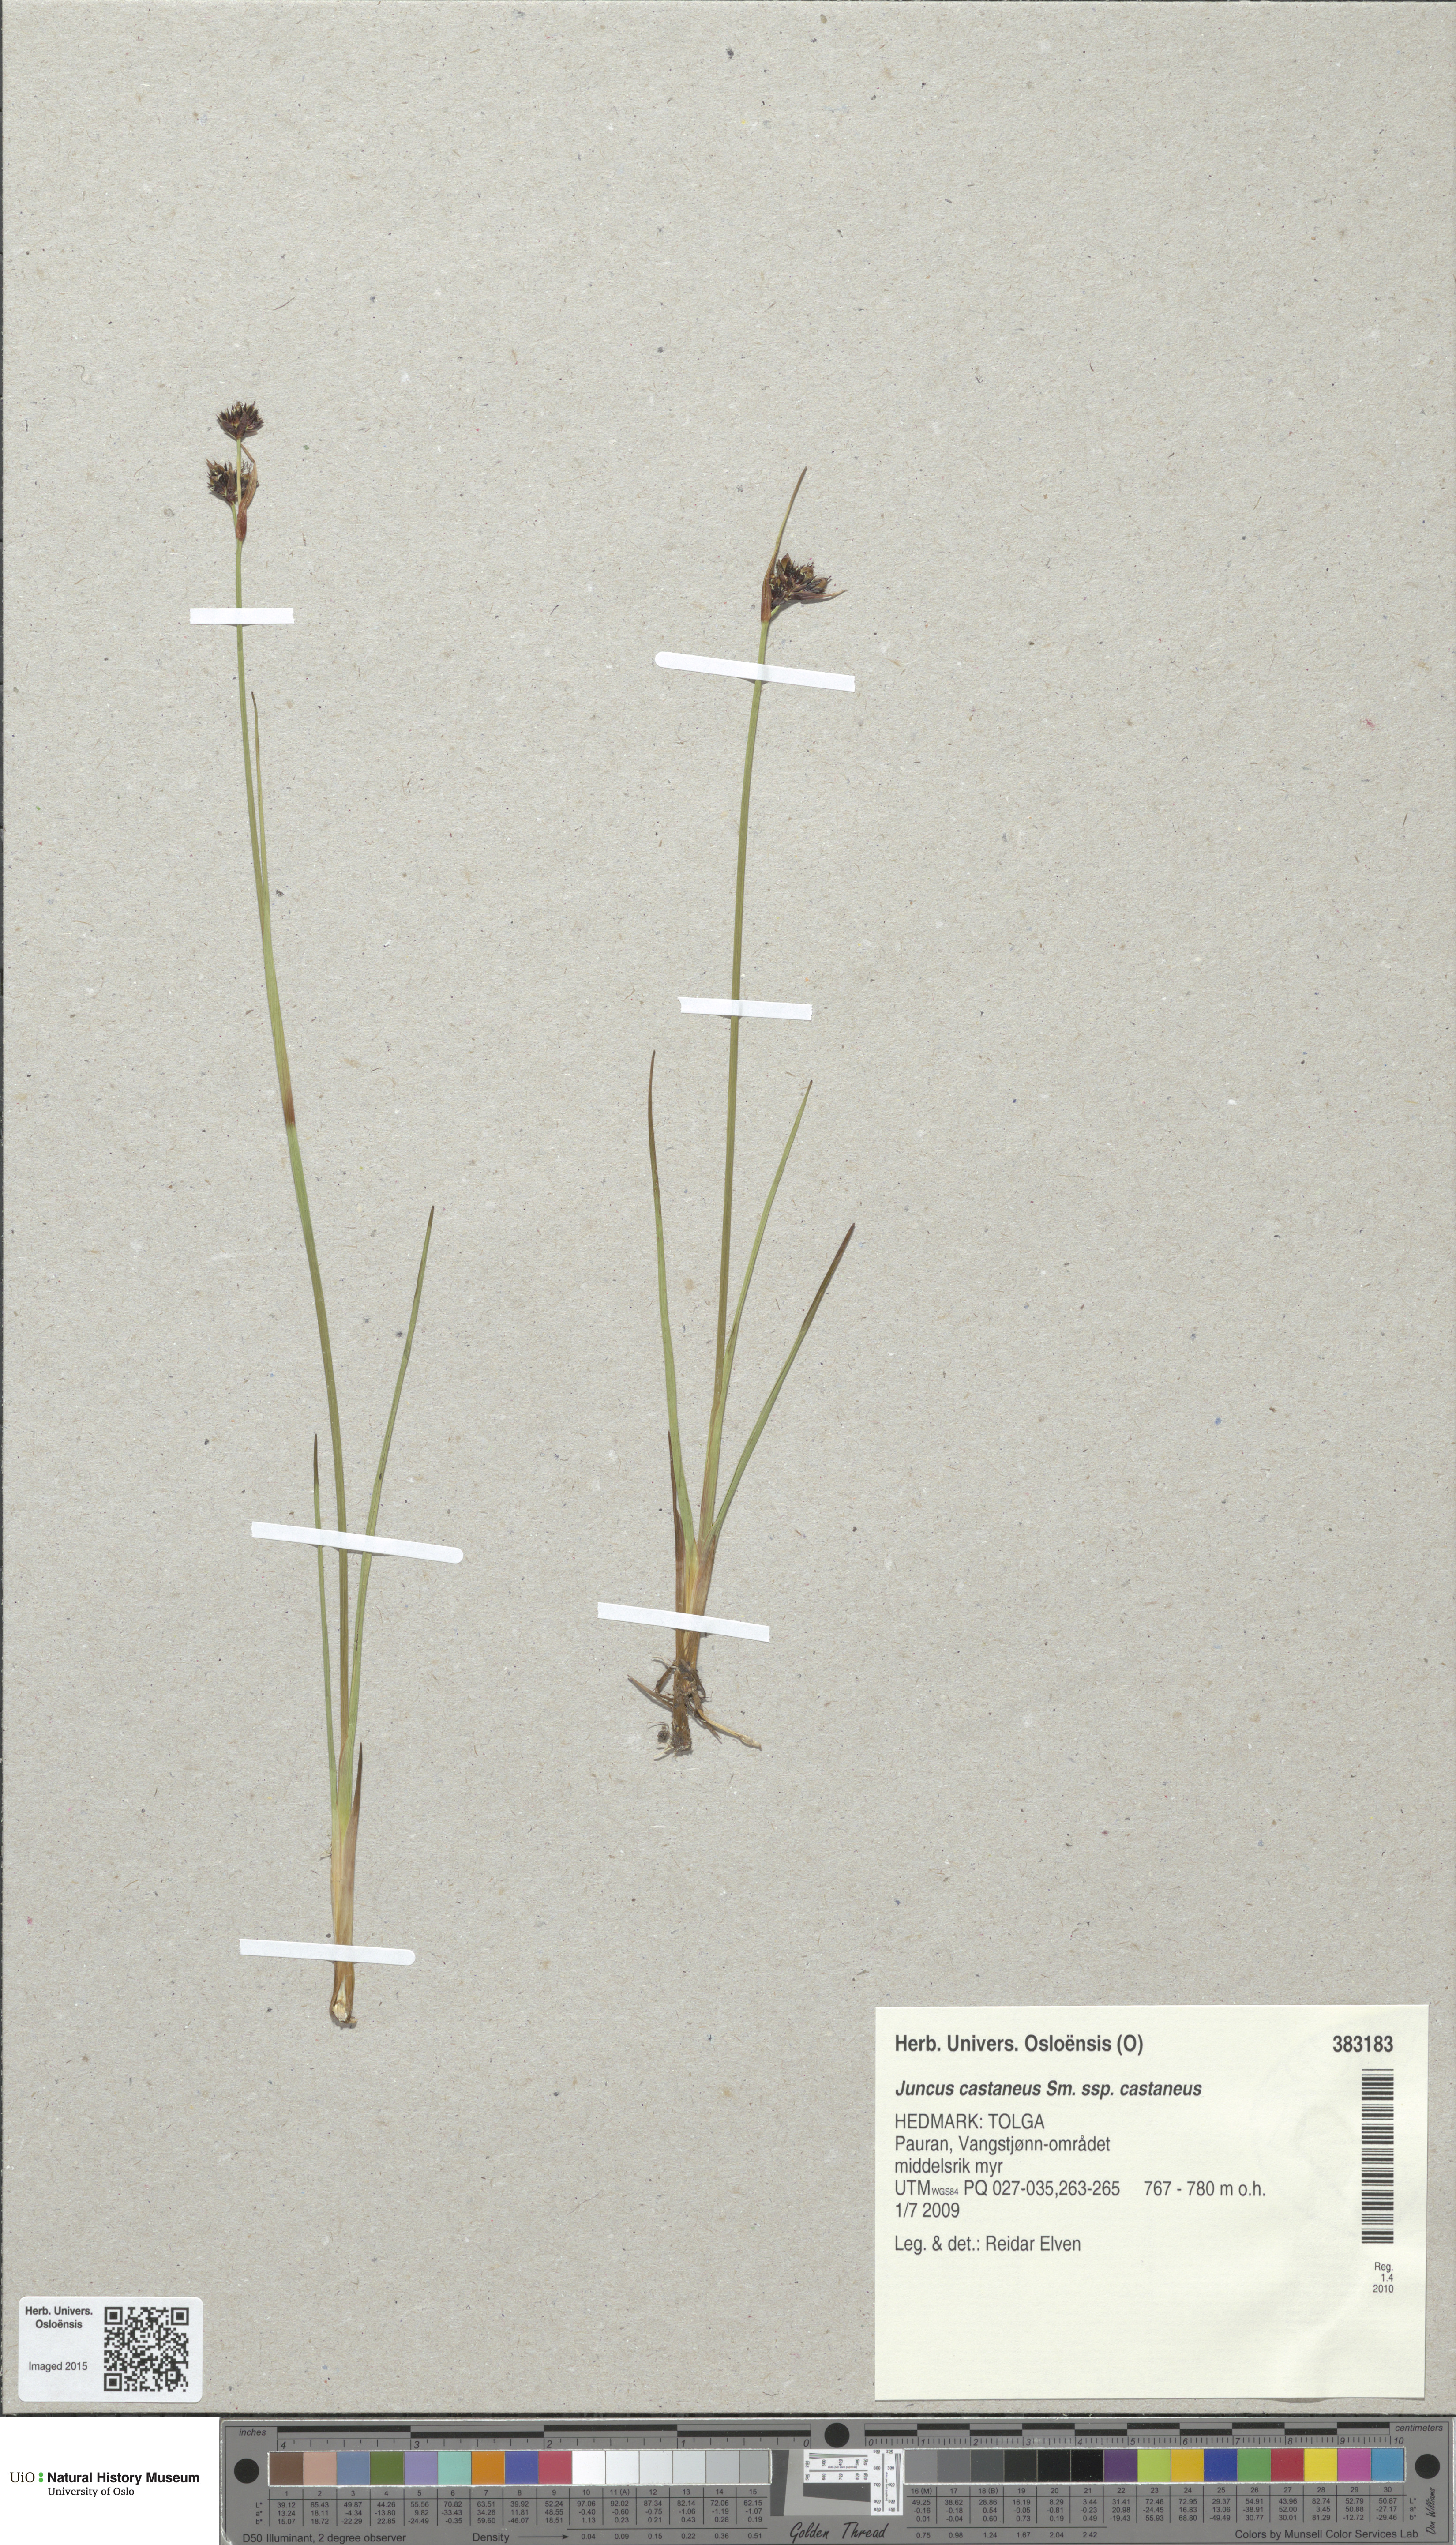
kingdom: Plantae
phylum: Tracheophyta
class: Liliopsida
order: Poales
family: Juncaceae
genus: Juncus
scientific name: Juncus castaneus
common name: Chestnut rush
